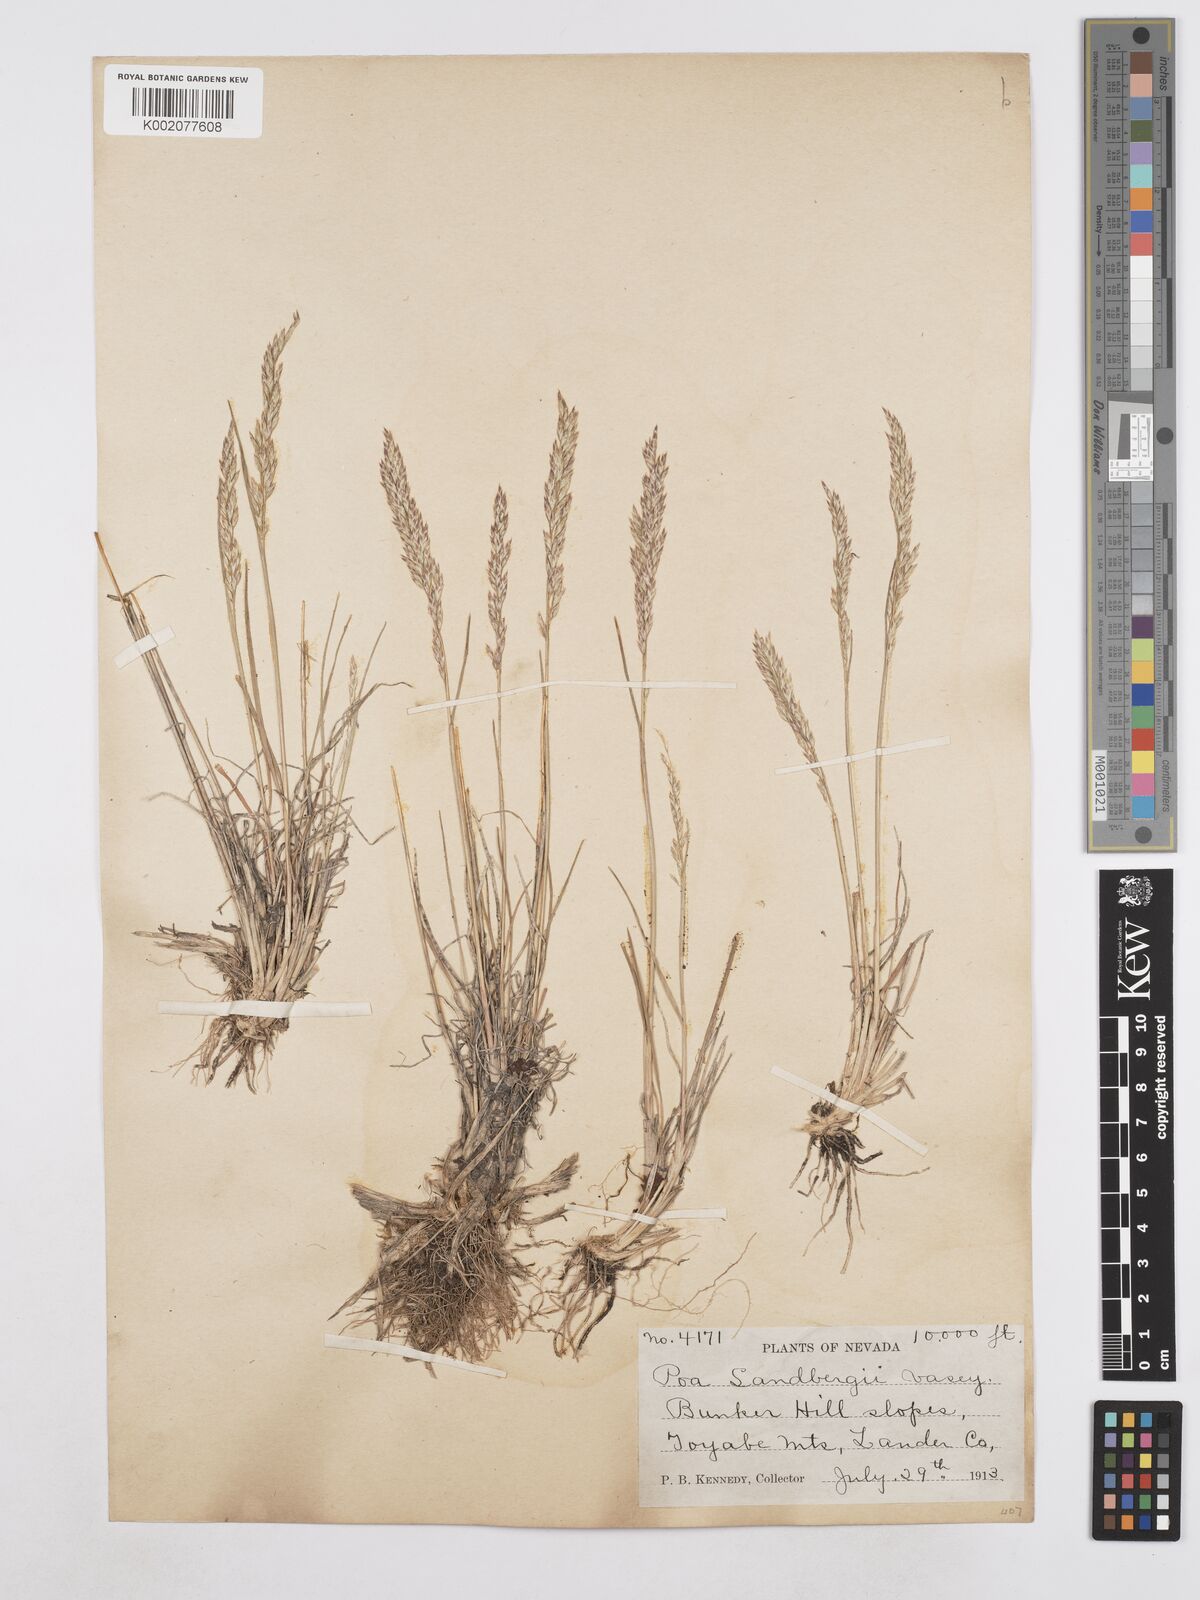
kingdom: Plantae
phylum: Tracheophyta
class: Liliopsida
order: Poales
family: Poaceae
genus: Poa
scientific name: Poa secunda
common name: Sandberg bluegrass
